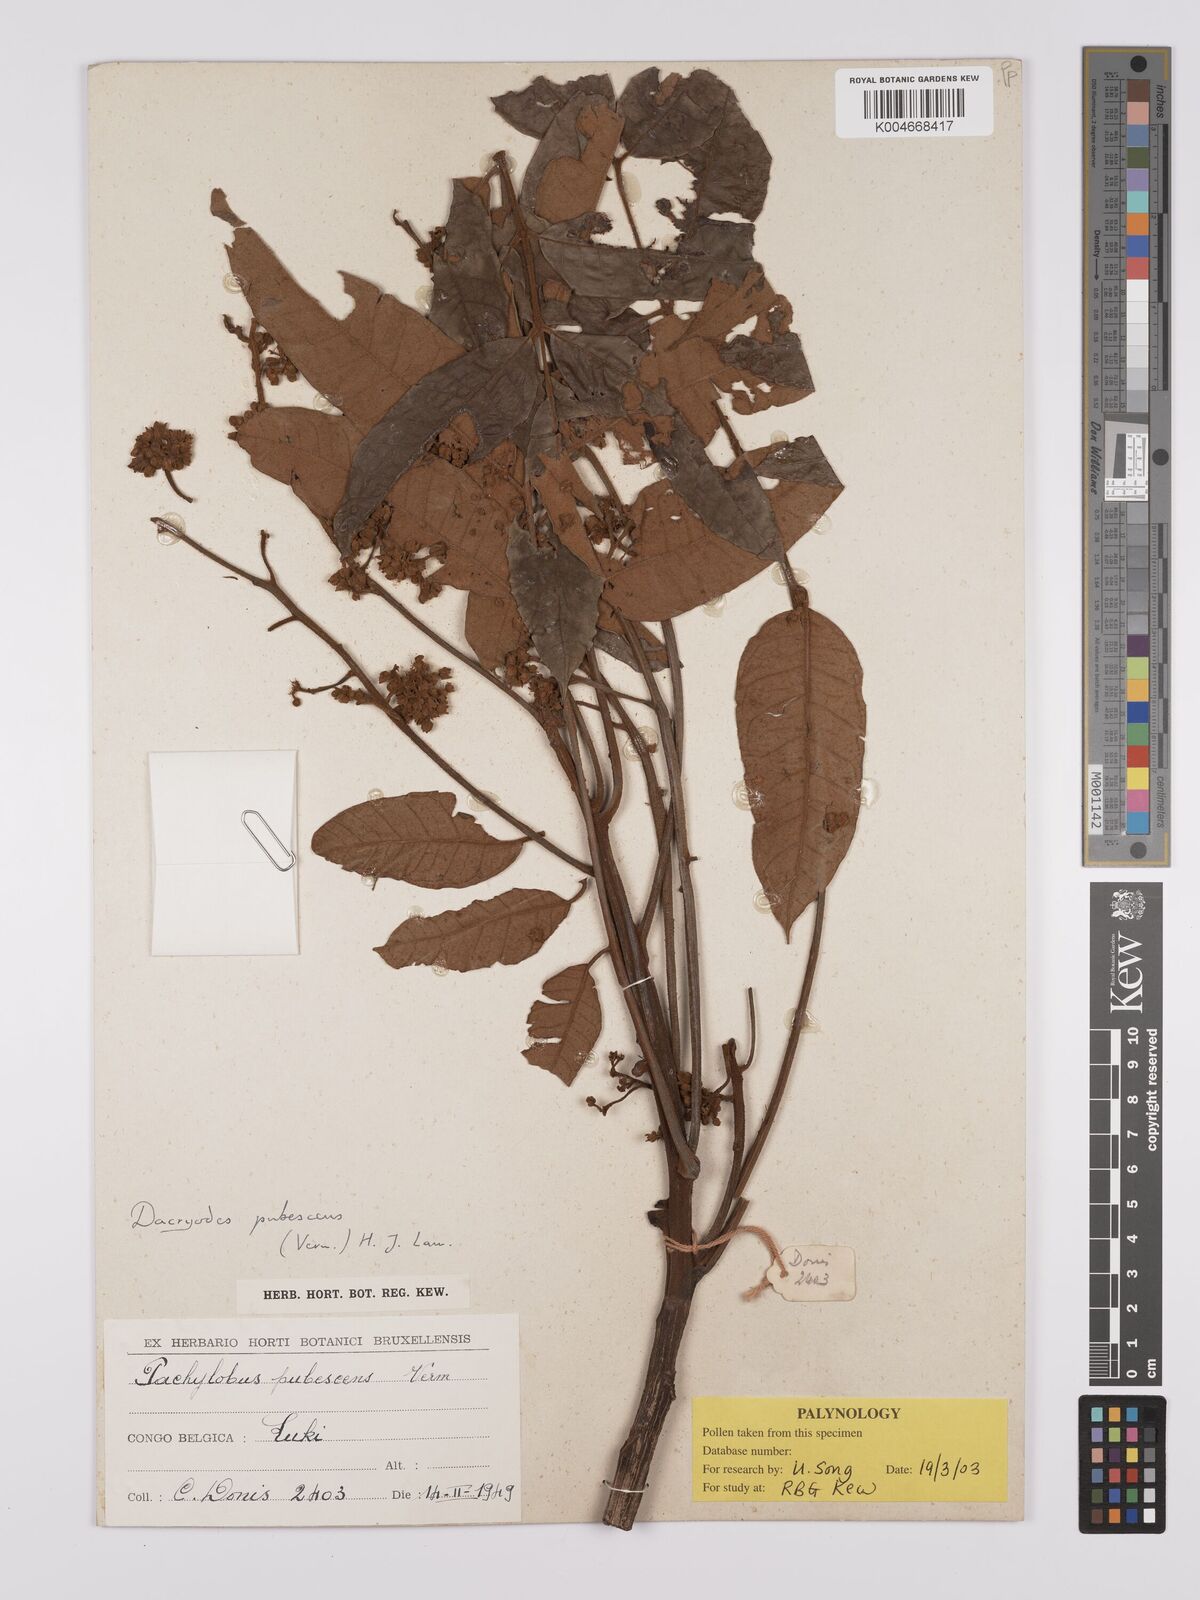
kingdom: Plantae
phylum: Tracheophyta
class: Magnoliopsida
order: Sapindales
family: Burseraceae
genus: Dacryodes
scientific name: Dacryodes
